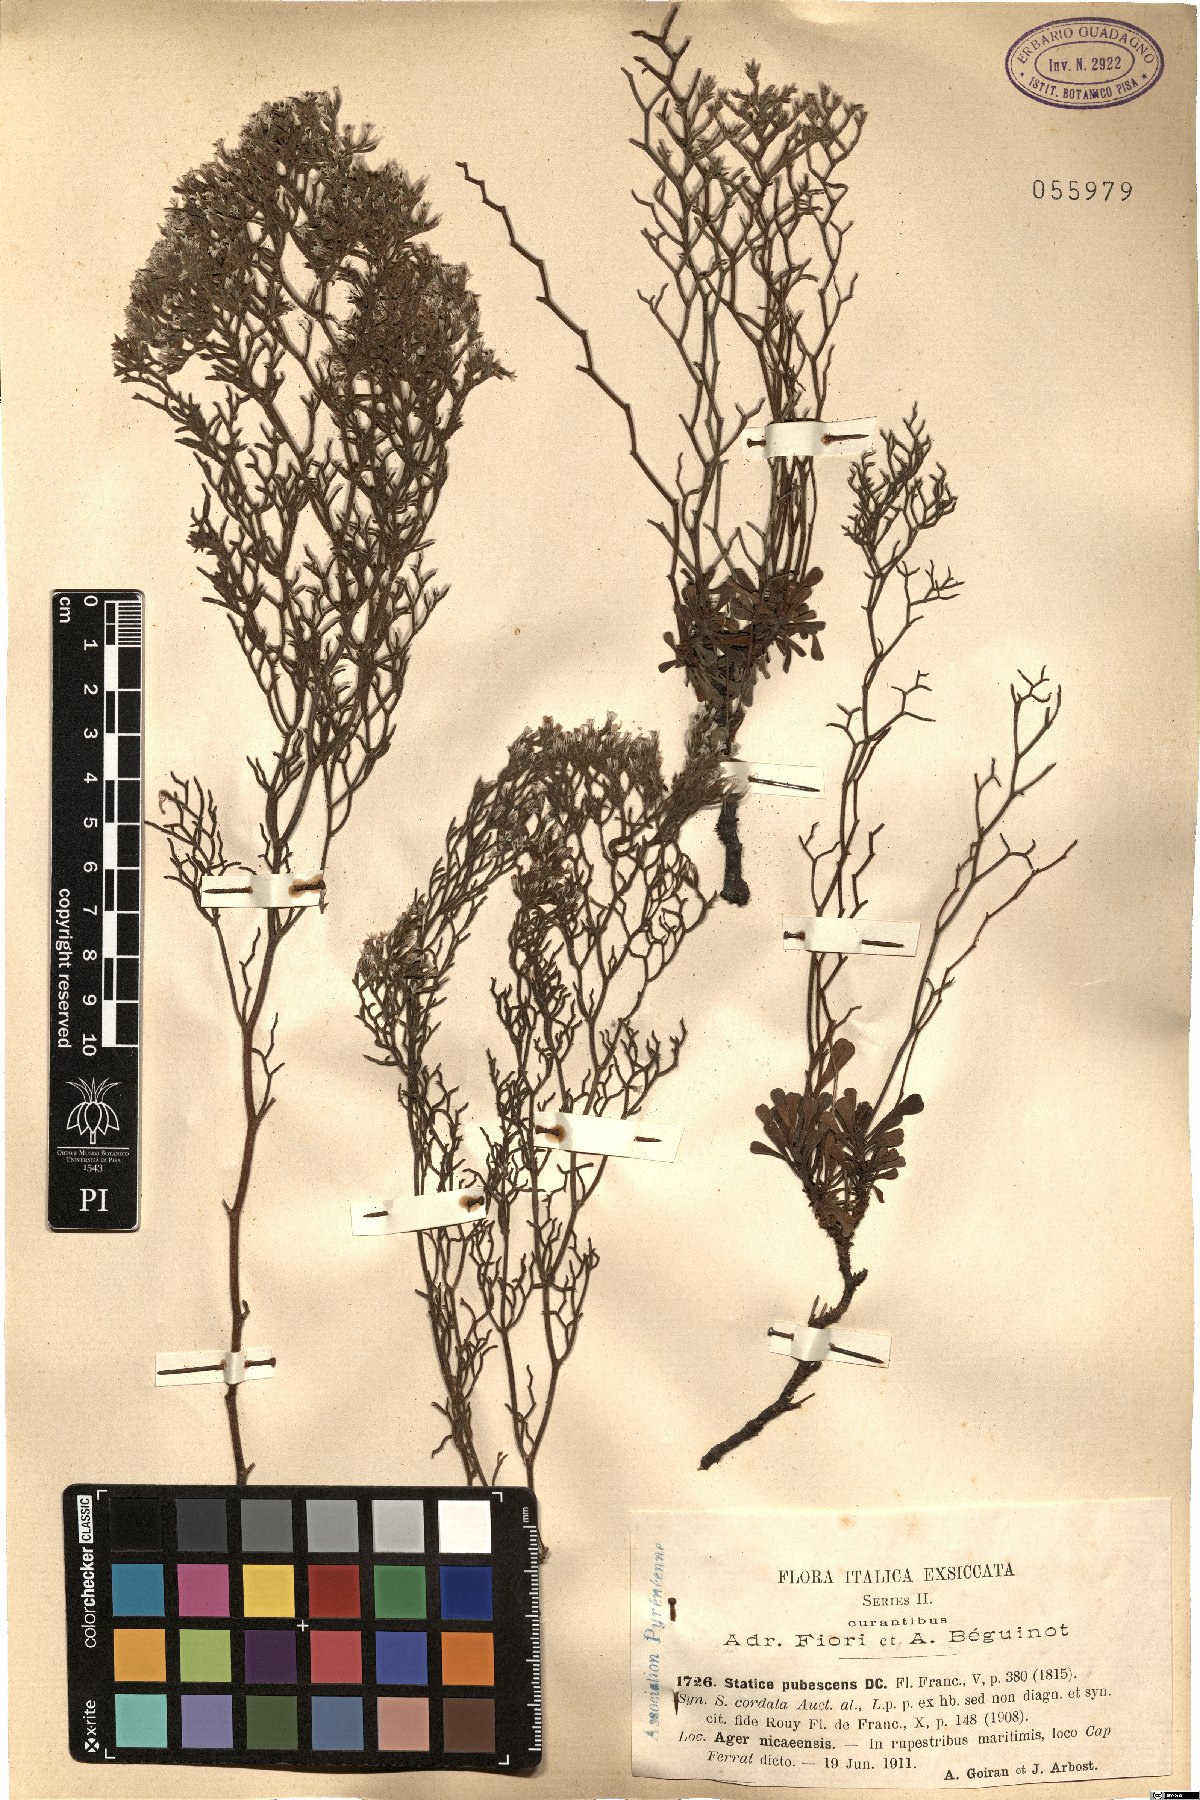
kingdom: Plantae
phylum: Tracheophyta
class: Magnoliopsida
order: Caryophyllales
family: Plumbaginaceae
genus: Limonium
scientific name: Limonium cordatum
